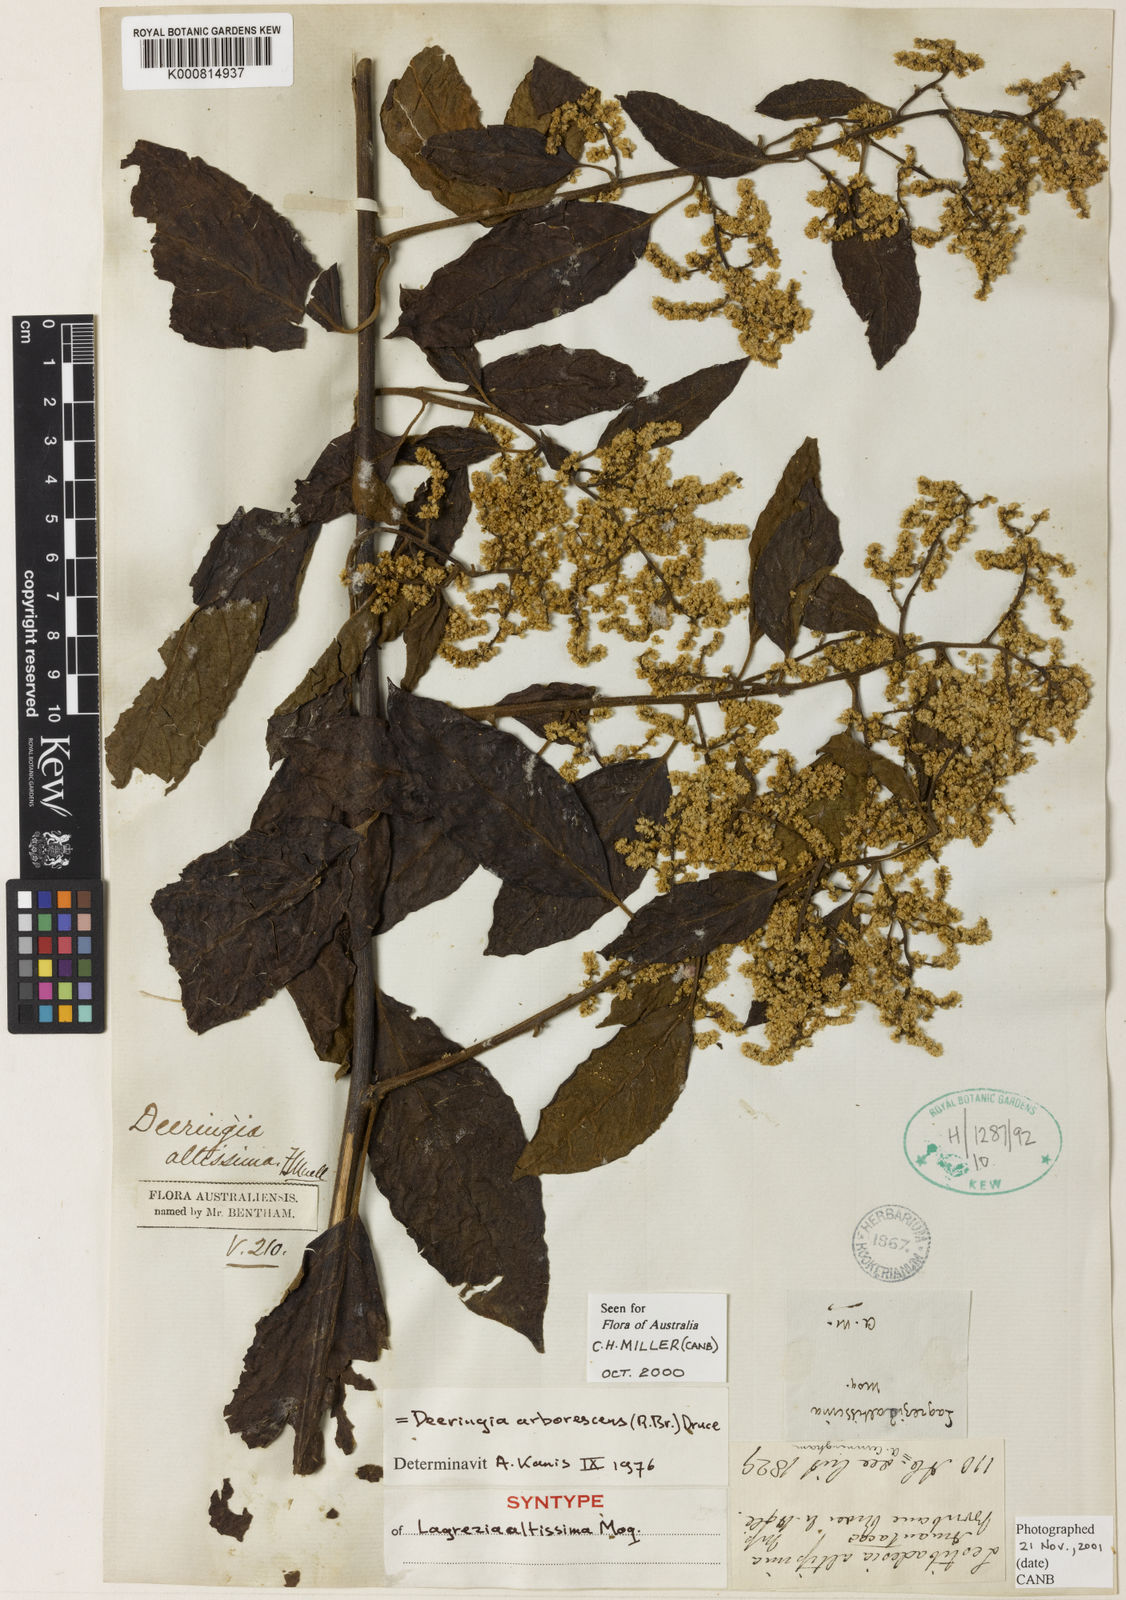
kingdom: Plantae
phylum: Tracheophyta
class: Magnoliopsida
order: Caryophyllales
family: Amaranthaceae
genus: Deeringia
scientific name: Deeringia arborescens
